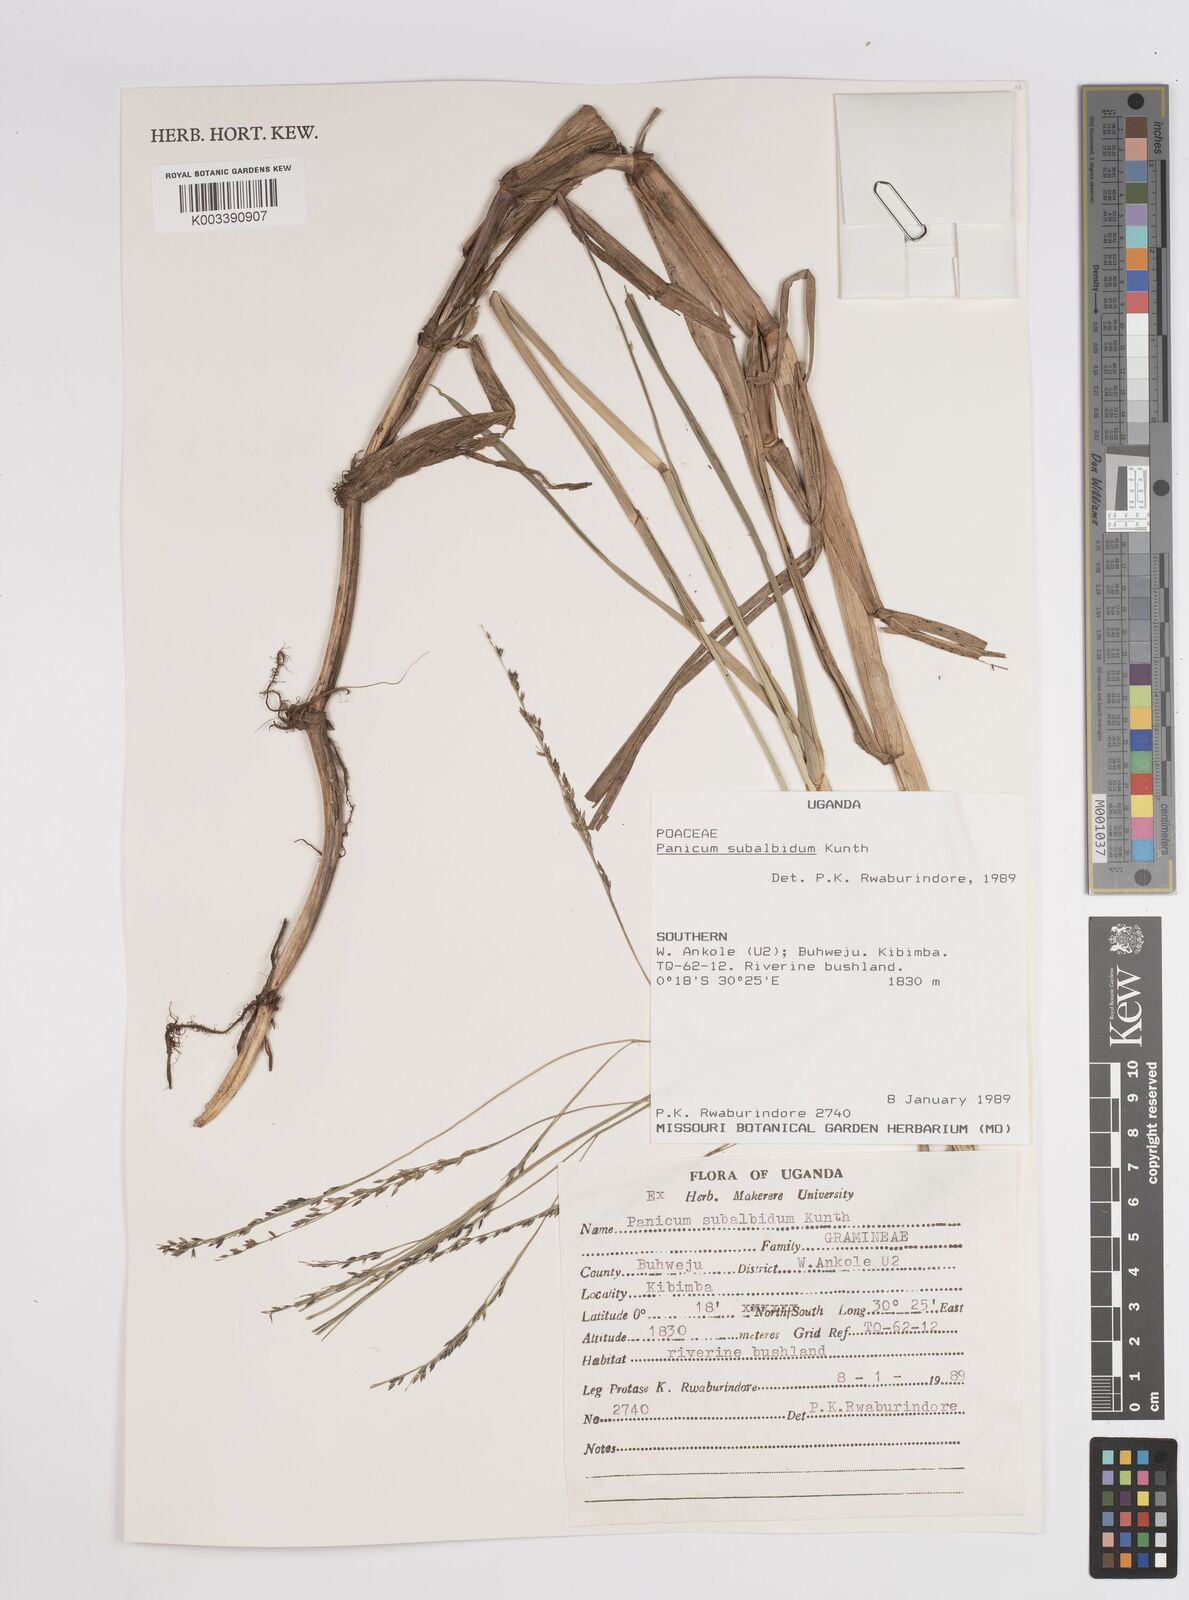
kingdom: Plantae
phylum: Tracheophyta
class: Liliopsida
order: Poales
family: Poaceae
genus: Panicum
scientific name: Panicum subalbidum
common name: Elbow buffalo grass
